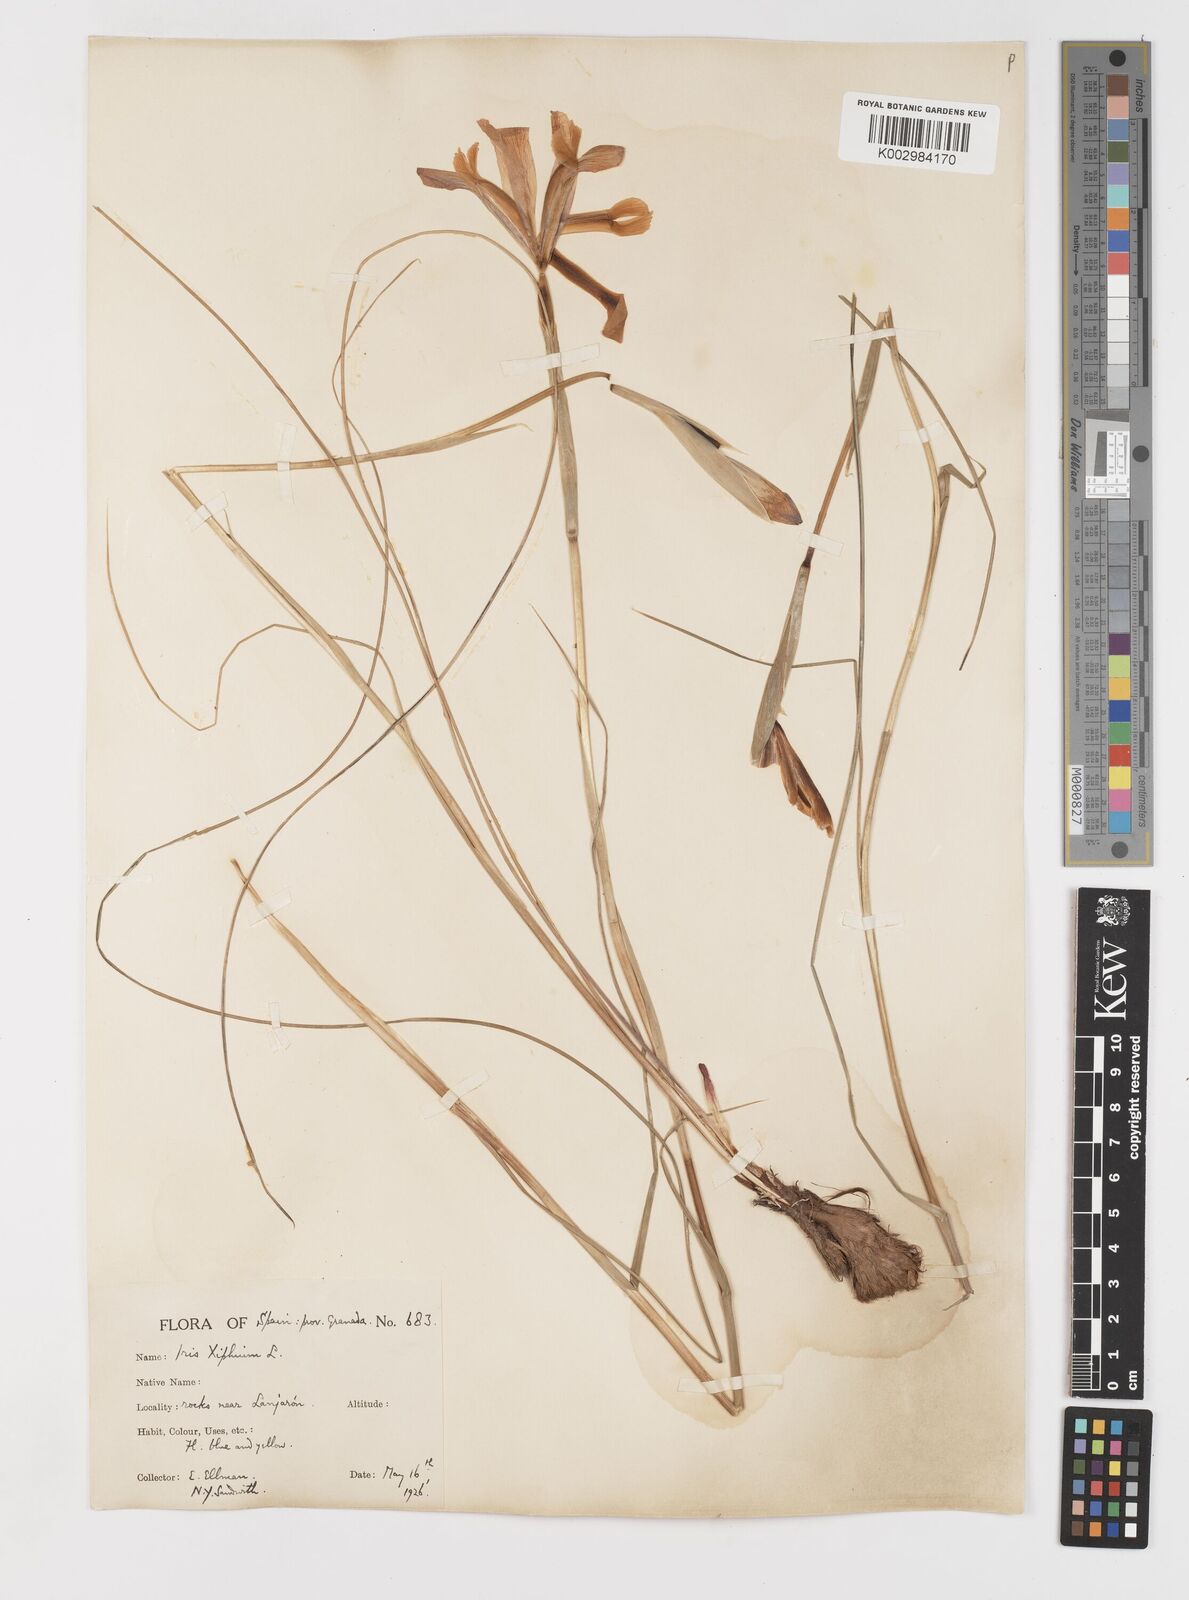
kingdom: Plantae
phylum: Tracheophyta
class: Liliopsida
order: Asparagales
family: Iridaceae
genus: Iris
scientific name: Iris xiphium
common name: Spanish iris
